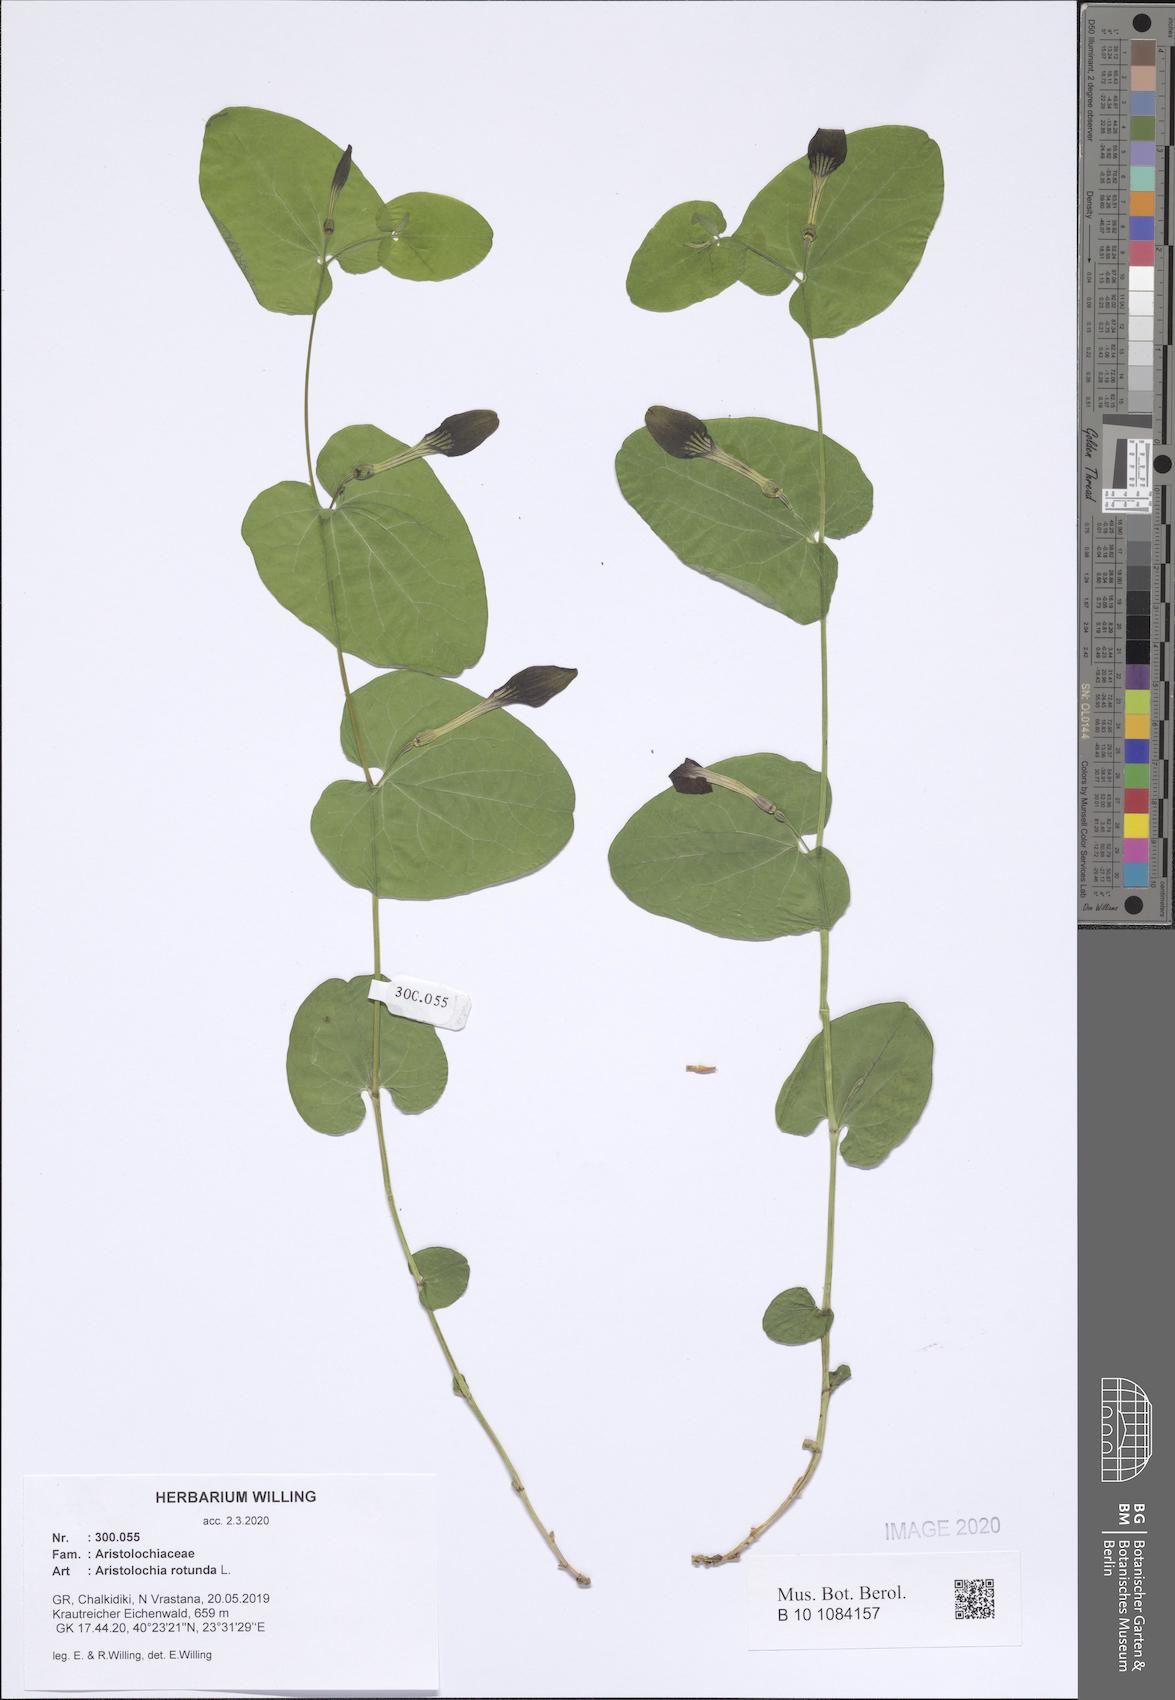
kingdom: Plantae
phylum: Tracheophyta
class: Magnoliopsida
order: Piperales
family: Aristolochiaceae
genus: Aristolochia
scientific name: Aristolochia rotunda
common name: Smearwort
